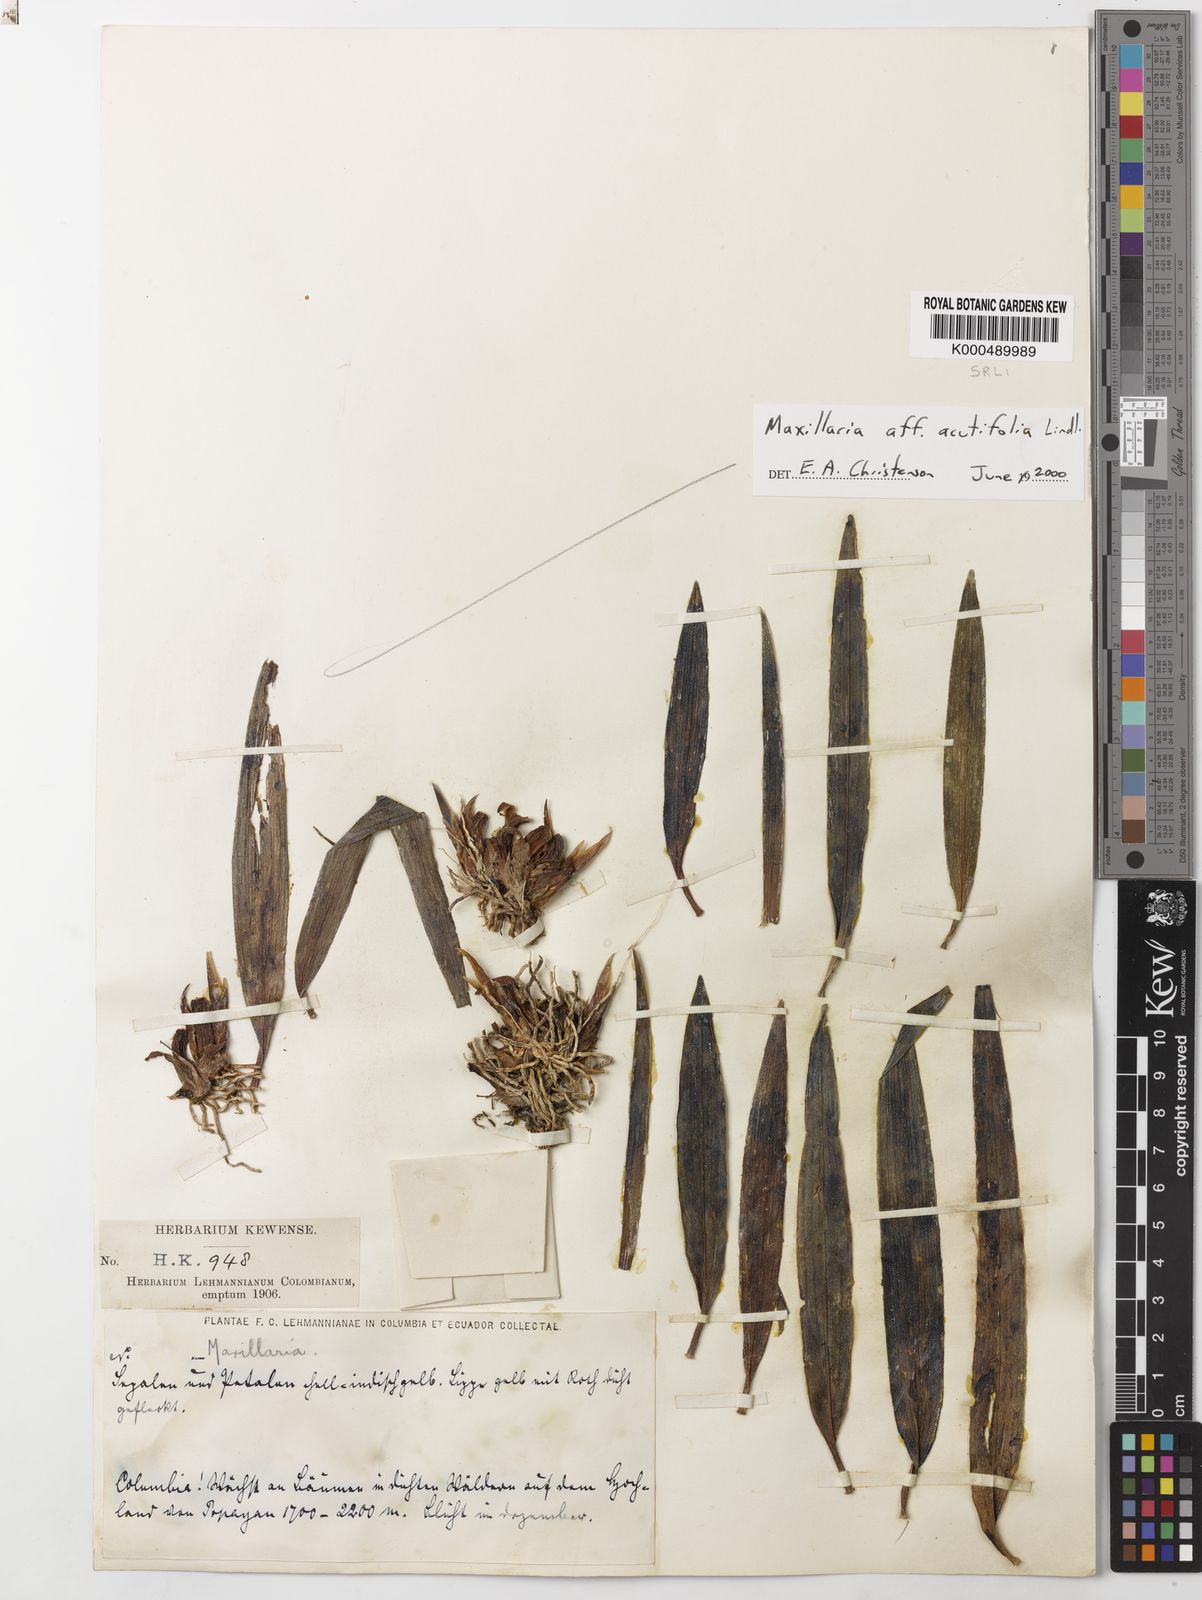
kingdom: Plantae
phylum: Tracheophyta
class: Liliopsida
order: Asparagales
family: Orchidaceae
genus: Maxillaria
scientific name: Maxillaria acutifolia
